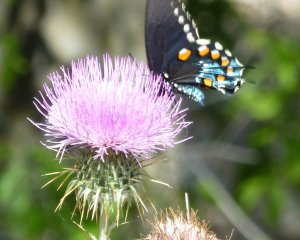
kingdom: Animalia
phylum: Arthropoda
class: Insecta
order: Lepidoptera
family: Papilionidae
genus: Battus
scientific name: Battus philenor
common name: Pipevine Swallowtail
